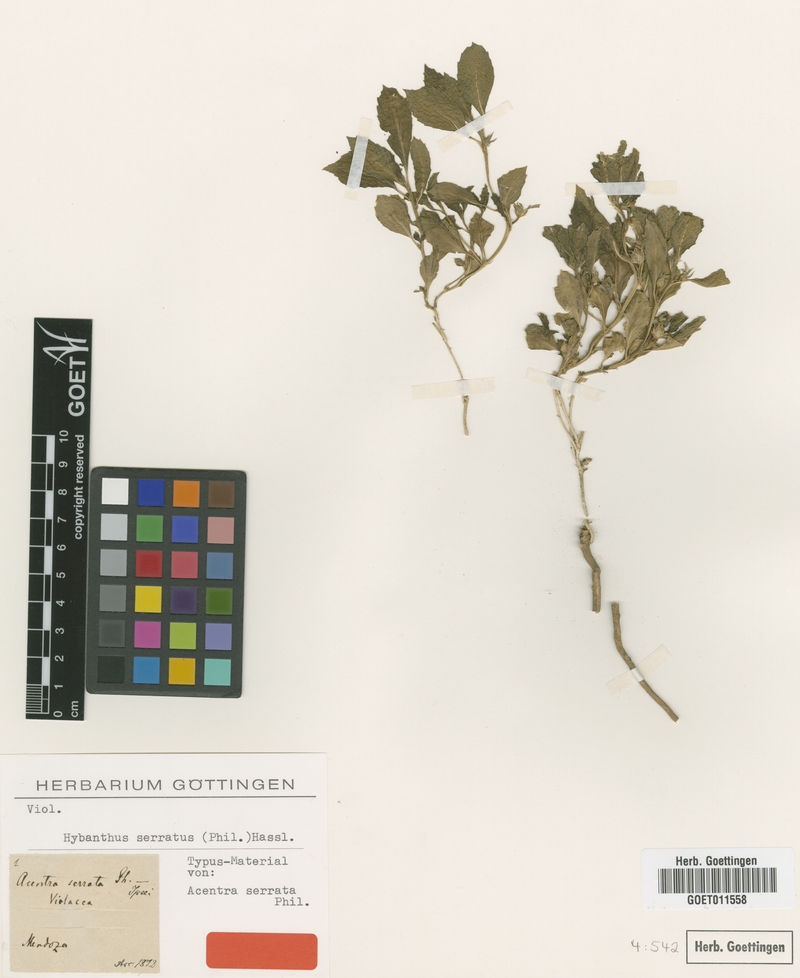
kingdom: Plantae
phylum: Tracheophyta
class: Magnoliopsida
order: Malpighiales
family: Violaceae
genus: Pombalia
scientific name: Pombalia serrata
